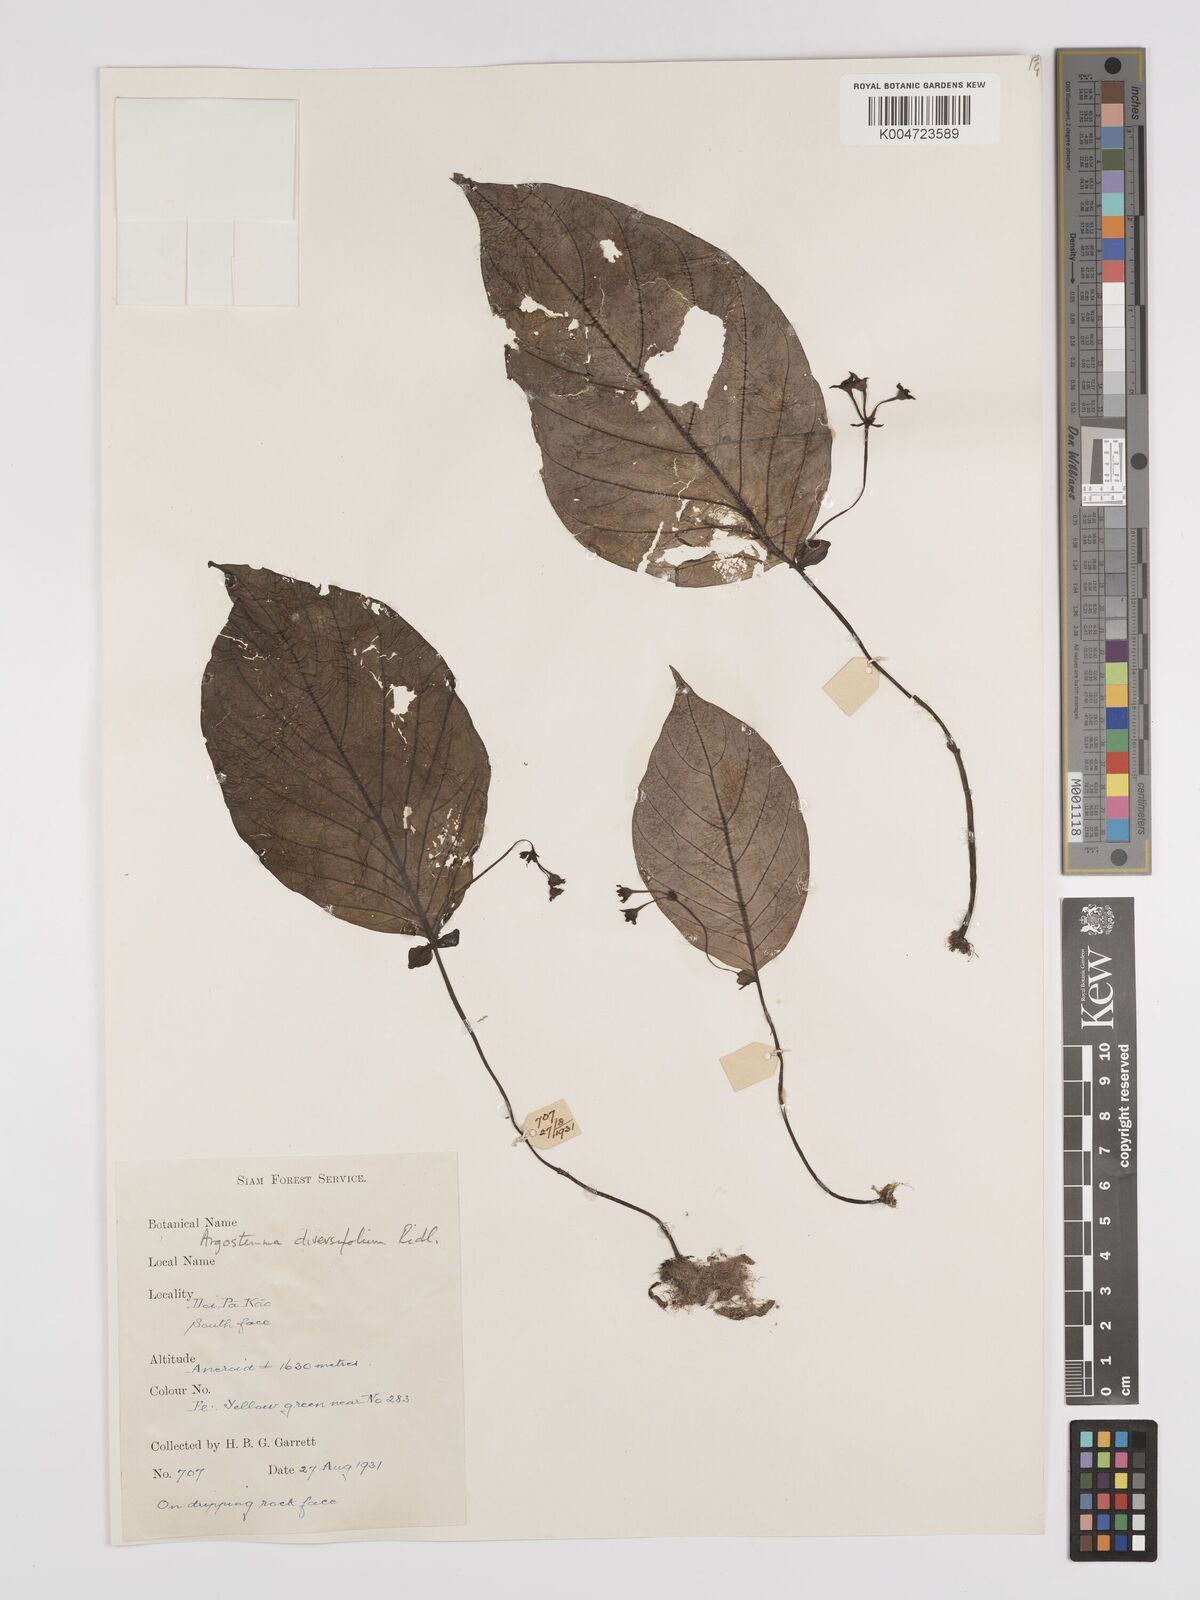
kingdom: Plantae
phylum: Tracheophyta
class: Magnoliopsida
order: Gentianales
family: Rubiaceae
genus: Argostemma
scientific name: Argostemma diversifolium
